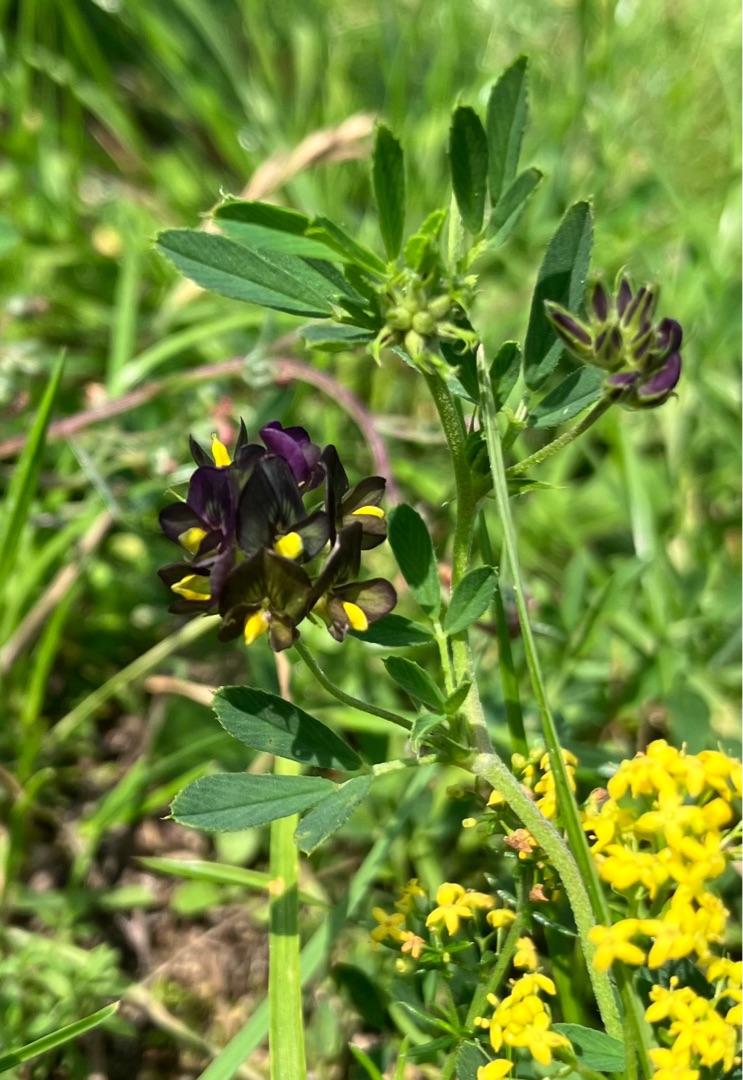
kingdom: Plantae
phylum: Tracheophyta
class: Magnoliopsida
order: Fabales
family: Fabaceae
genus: Medicago
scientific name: Medicago varia
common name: Sand-lucerne
